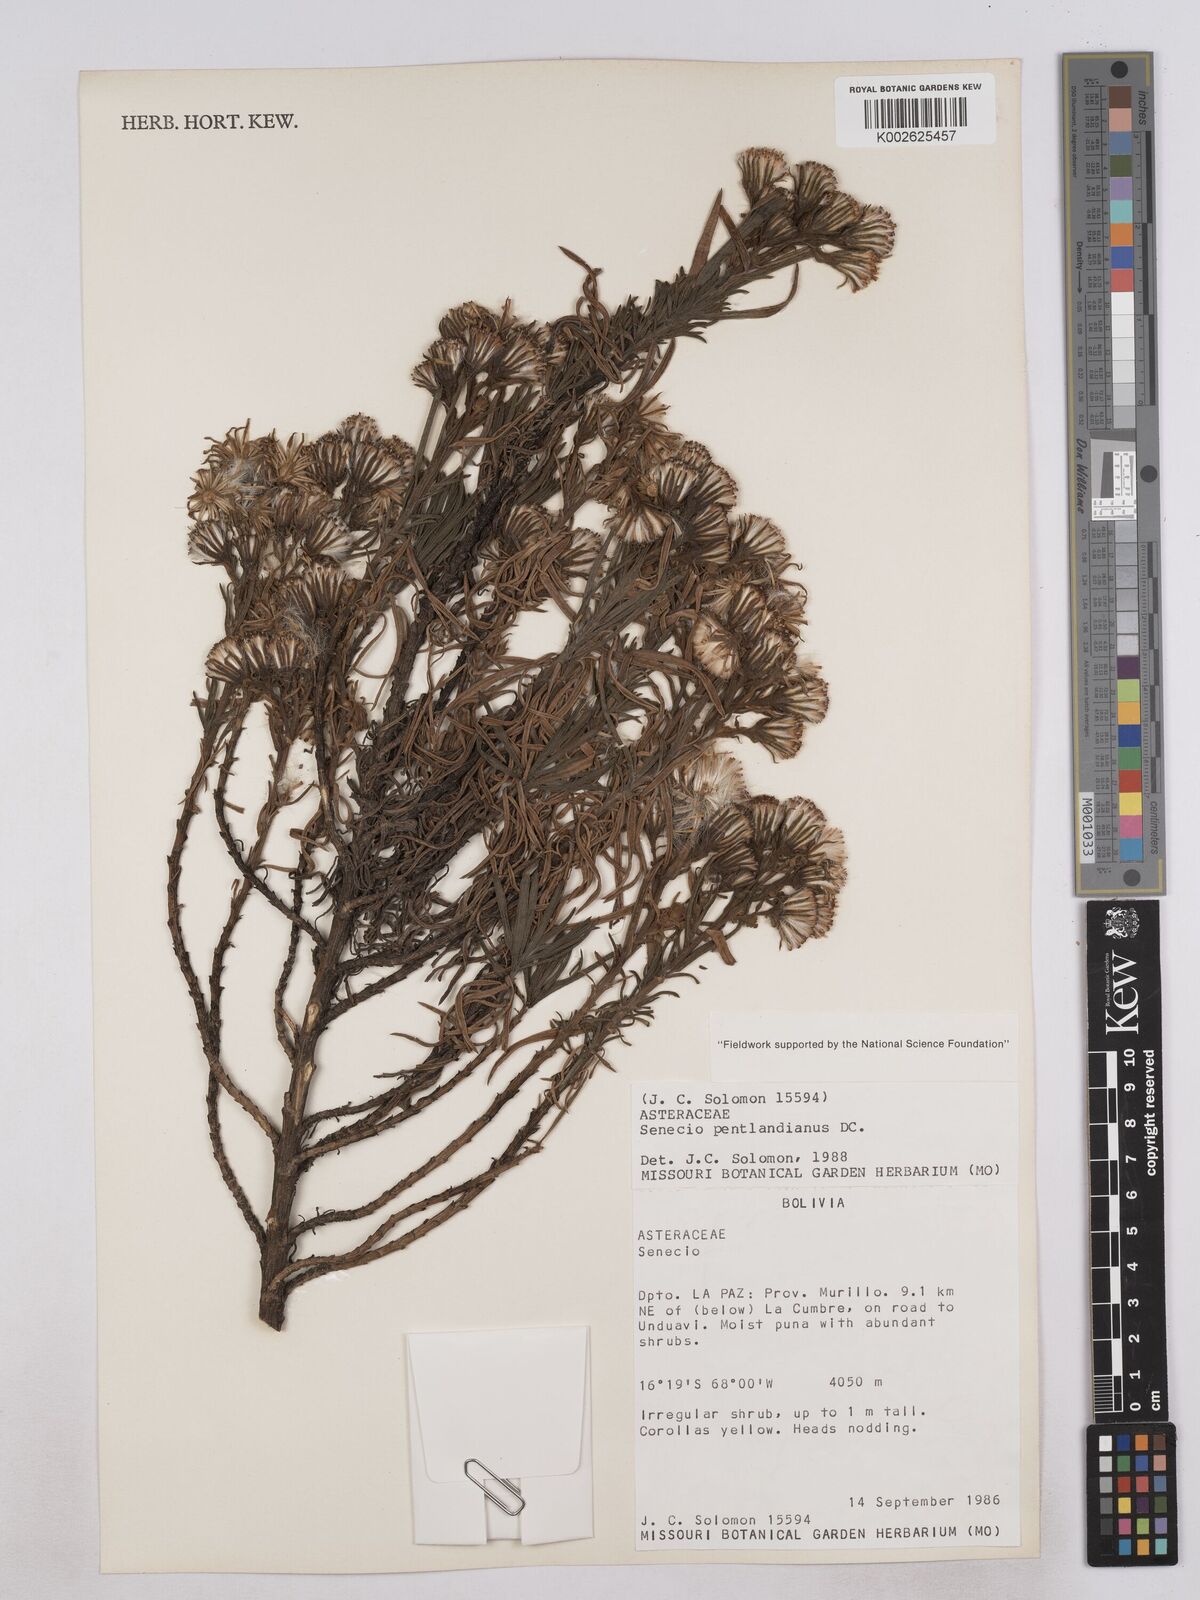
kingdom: Plantae
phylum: Tracheophyta
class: Magnoliopsida
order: Asterales
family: Asteraceae
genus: Senecio
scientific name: Senecio pentlandianus
